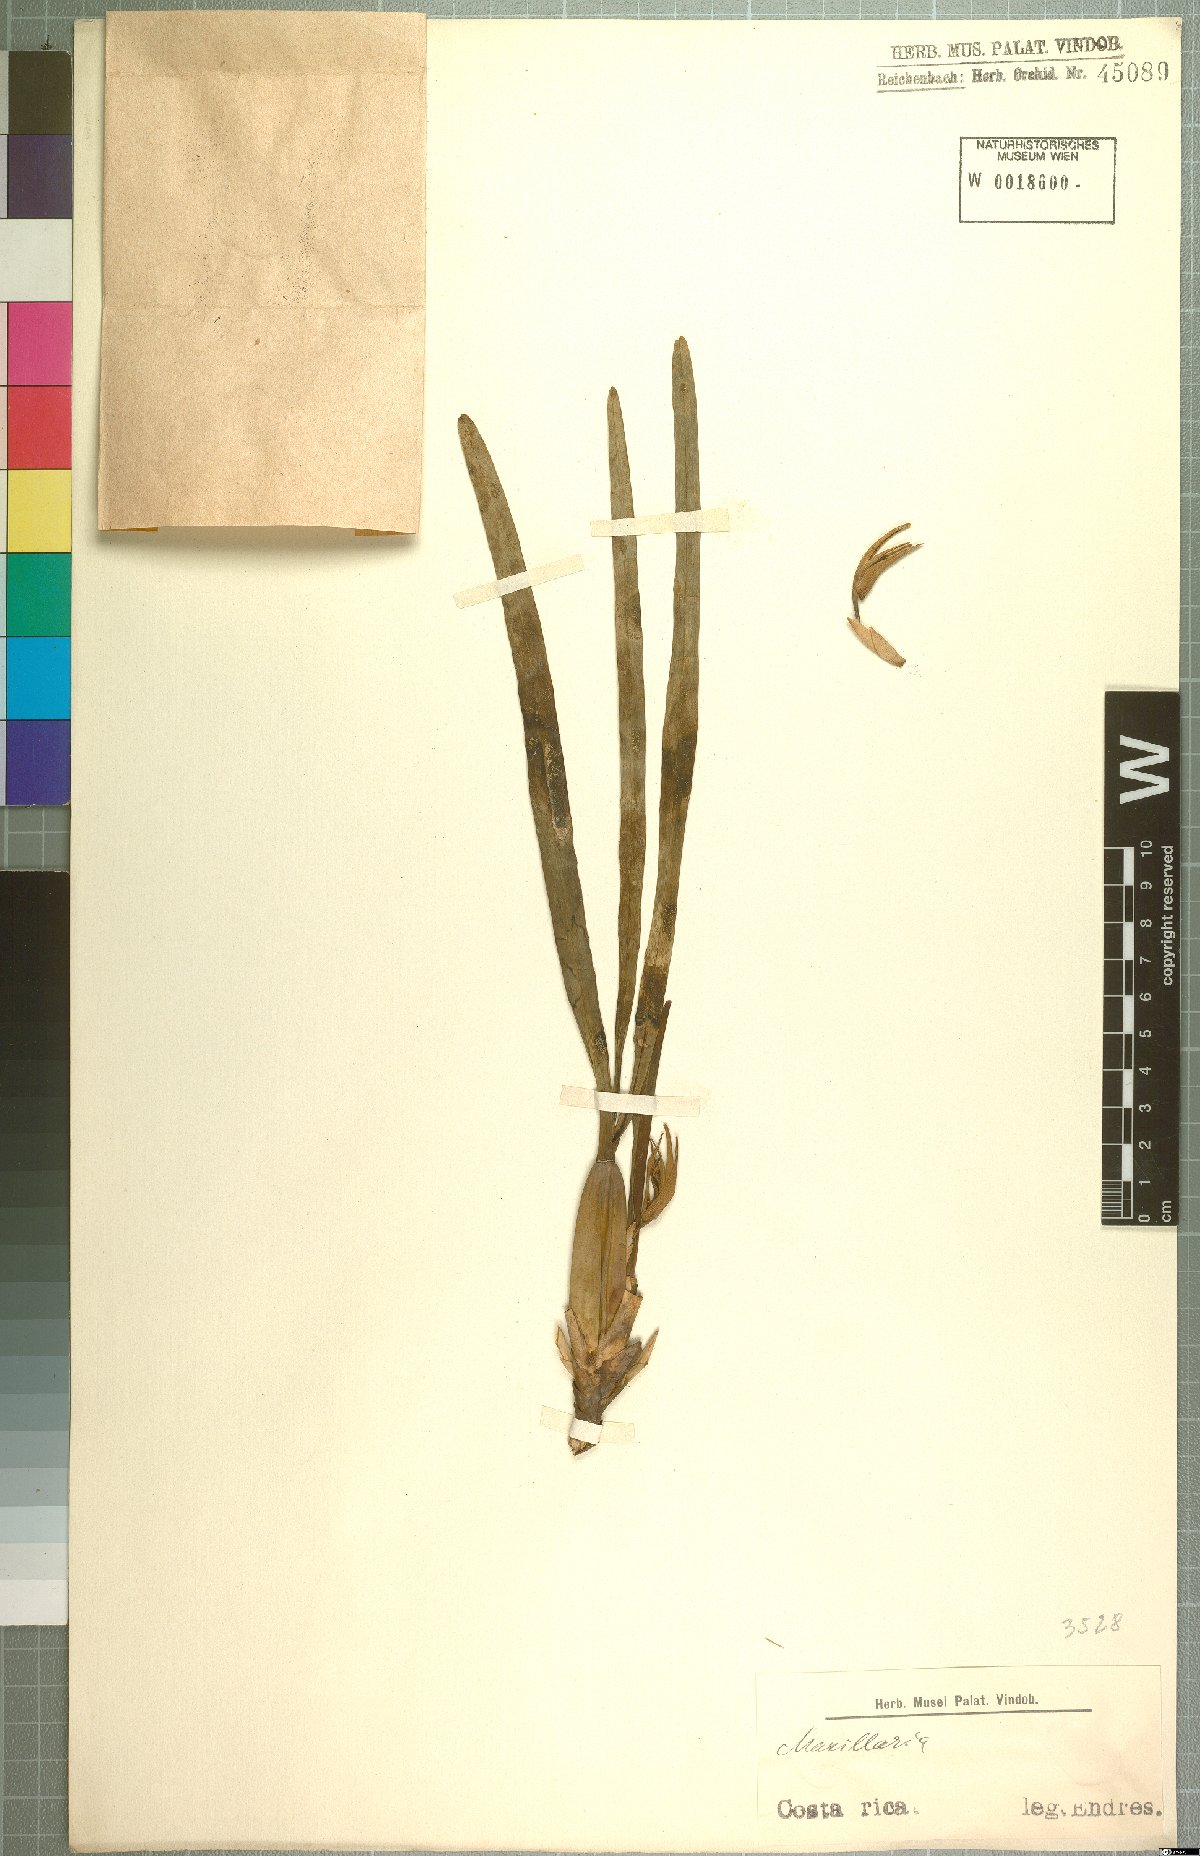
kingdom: Plantae
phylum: Tracheophyta
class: Liliopsida
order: Asparagales
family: Orchidaceae
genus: Maxillaria
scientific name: Maxillaria
